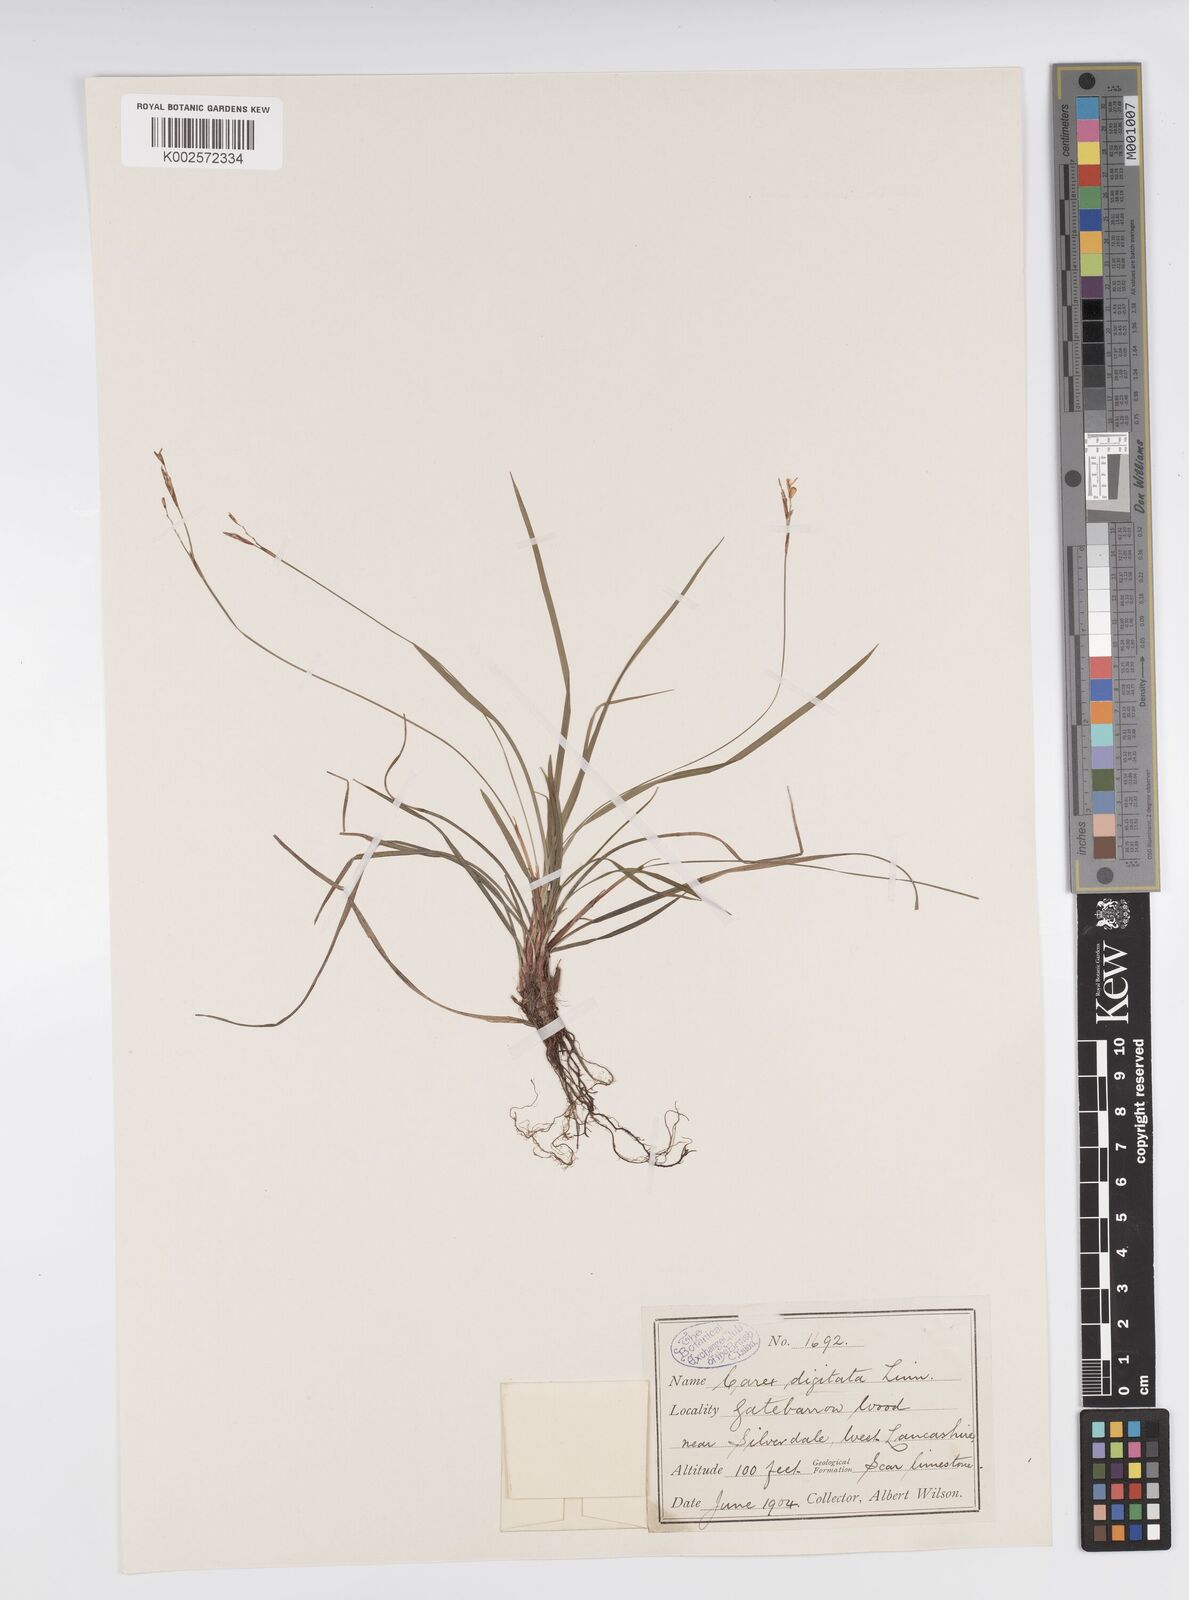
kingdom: Plantae
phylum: Tracheophyta
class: Liliopsida
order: Poales
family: Cyperaceae
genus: Carex
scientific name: Carex digitata
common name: Fingered sedge
